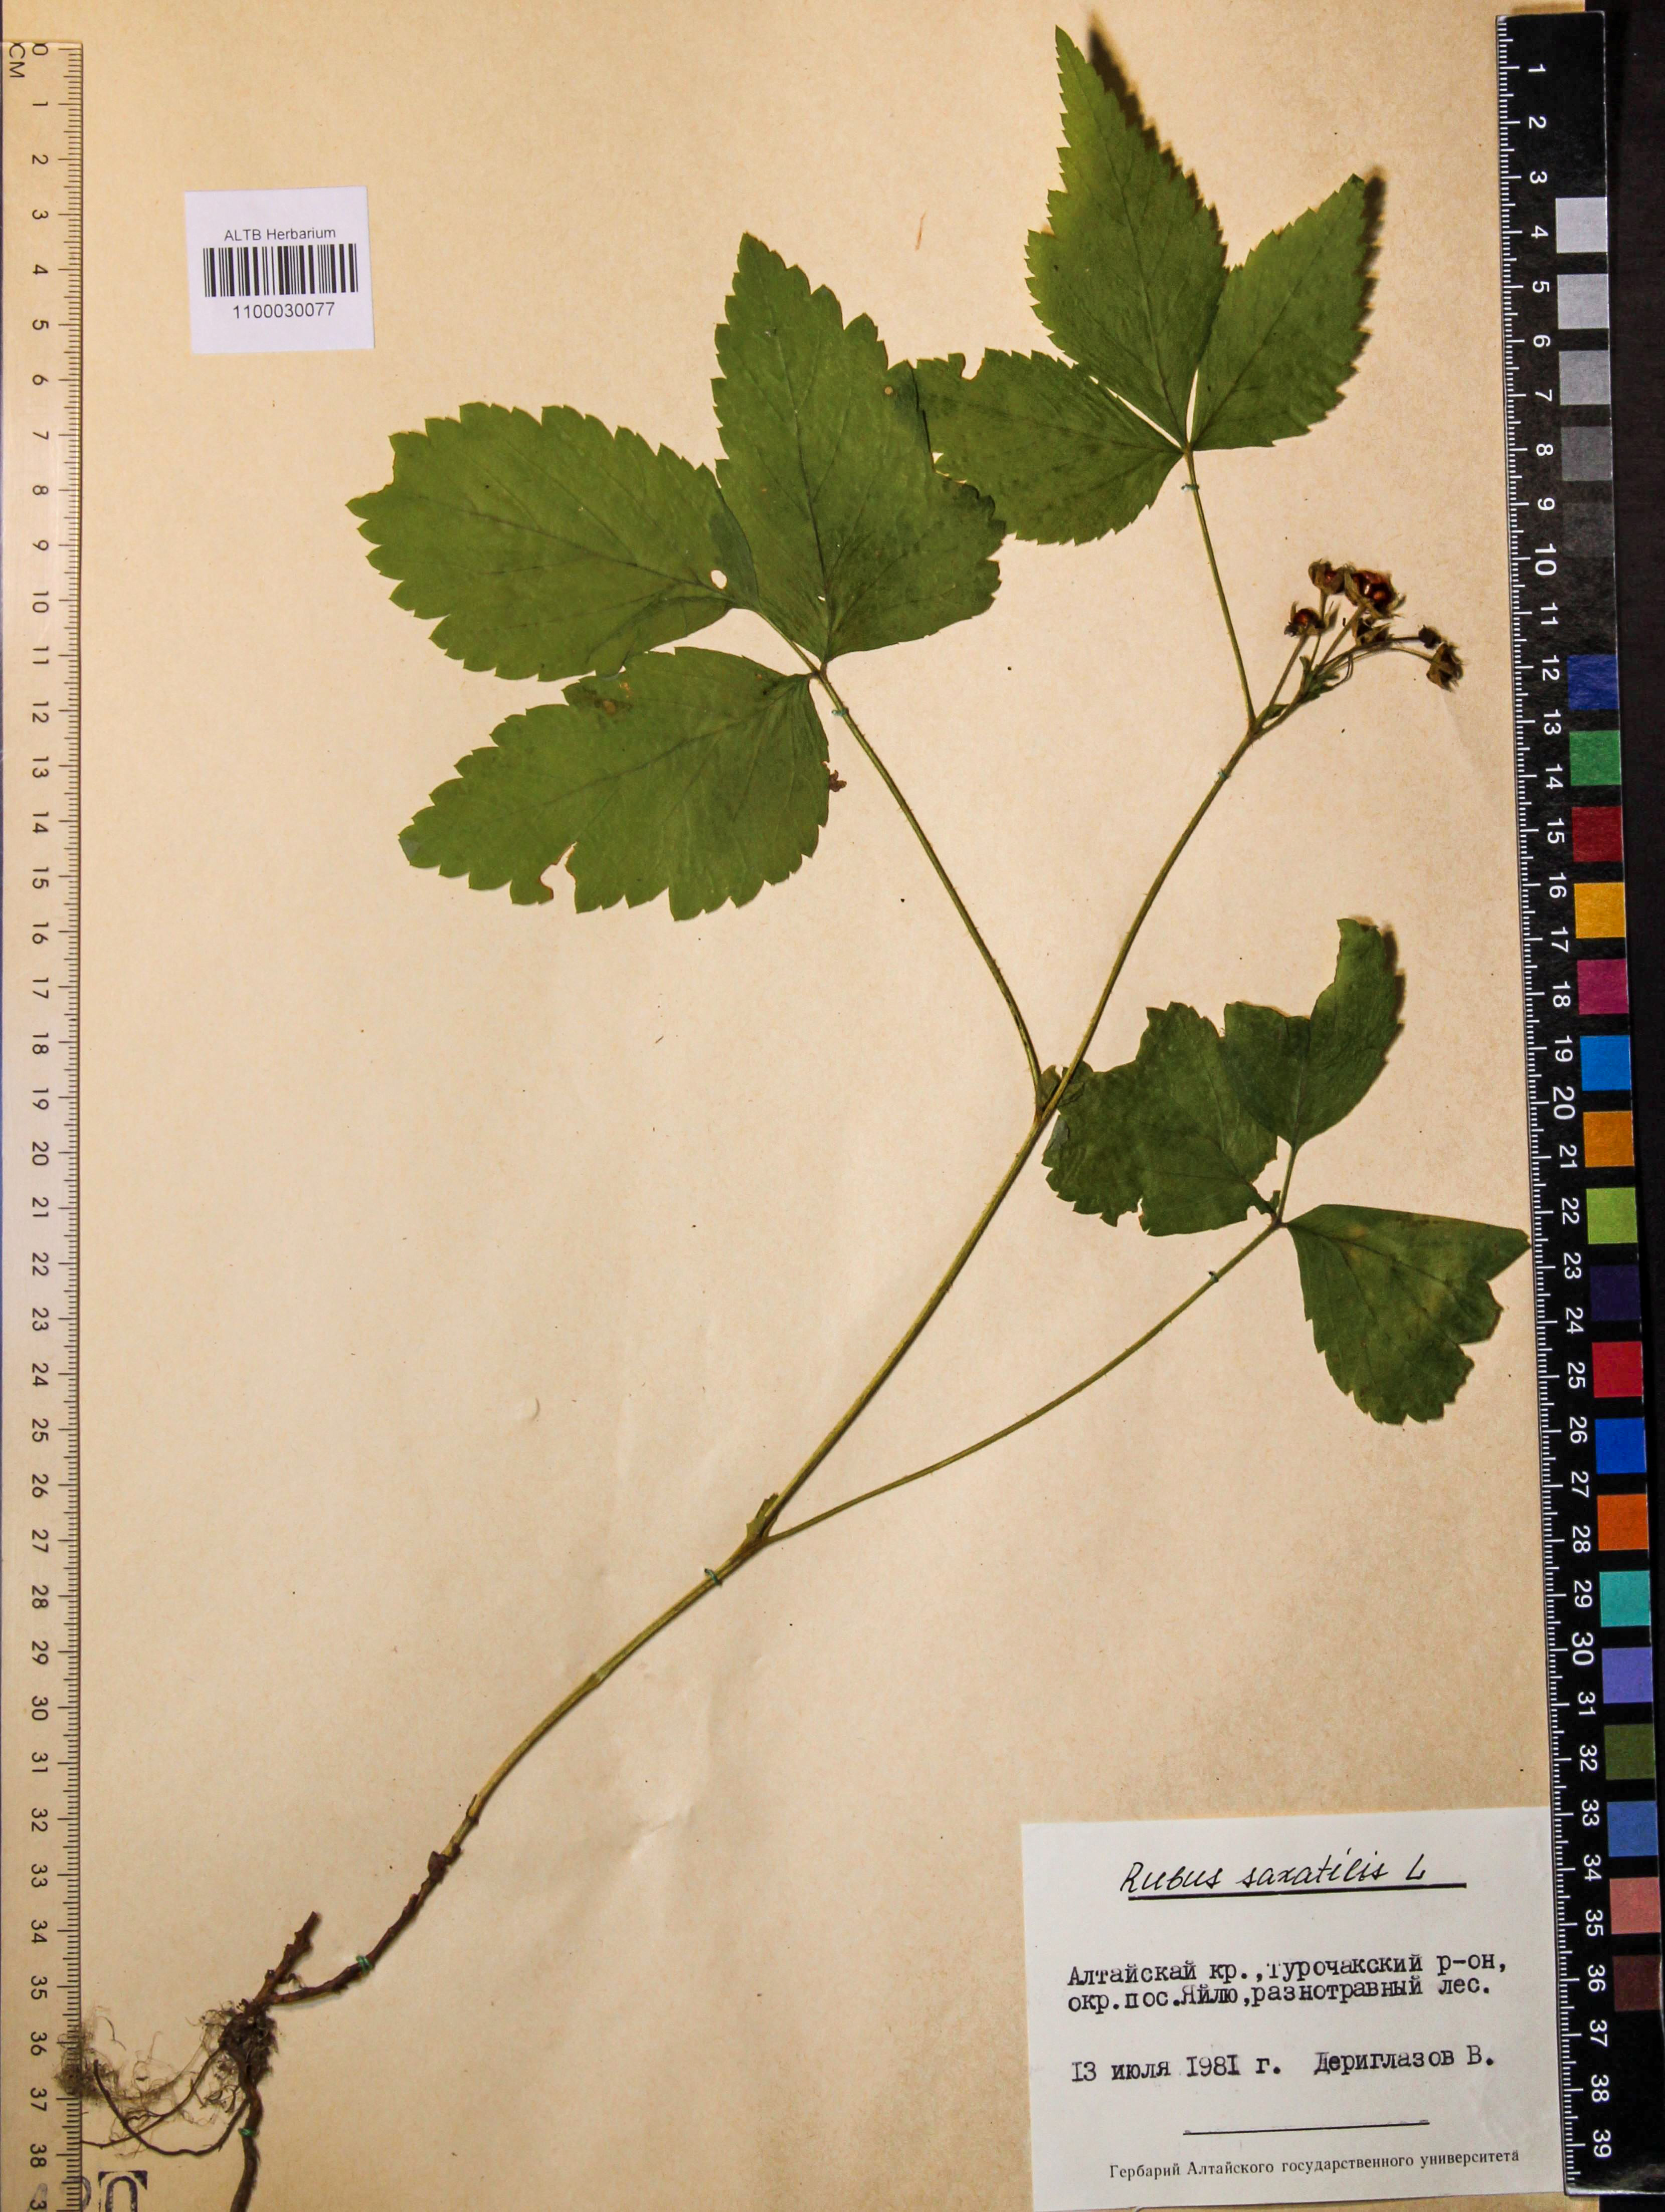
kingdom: Plantae
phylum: Tracheophyta
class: Magnoliopsida
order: Rosales
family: Rosaceae
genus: Rubus
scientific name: Rubus saxatilis
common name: Stone bramble
